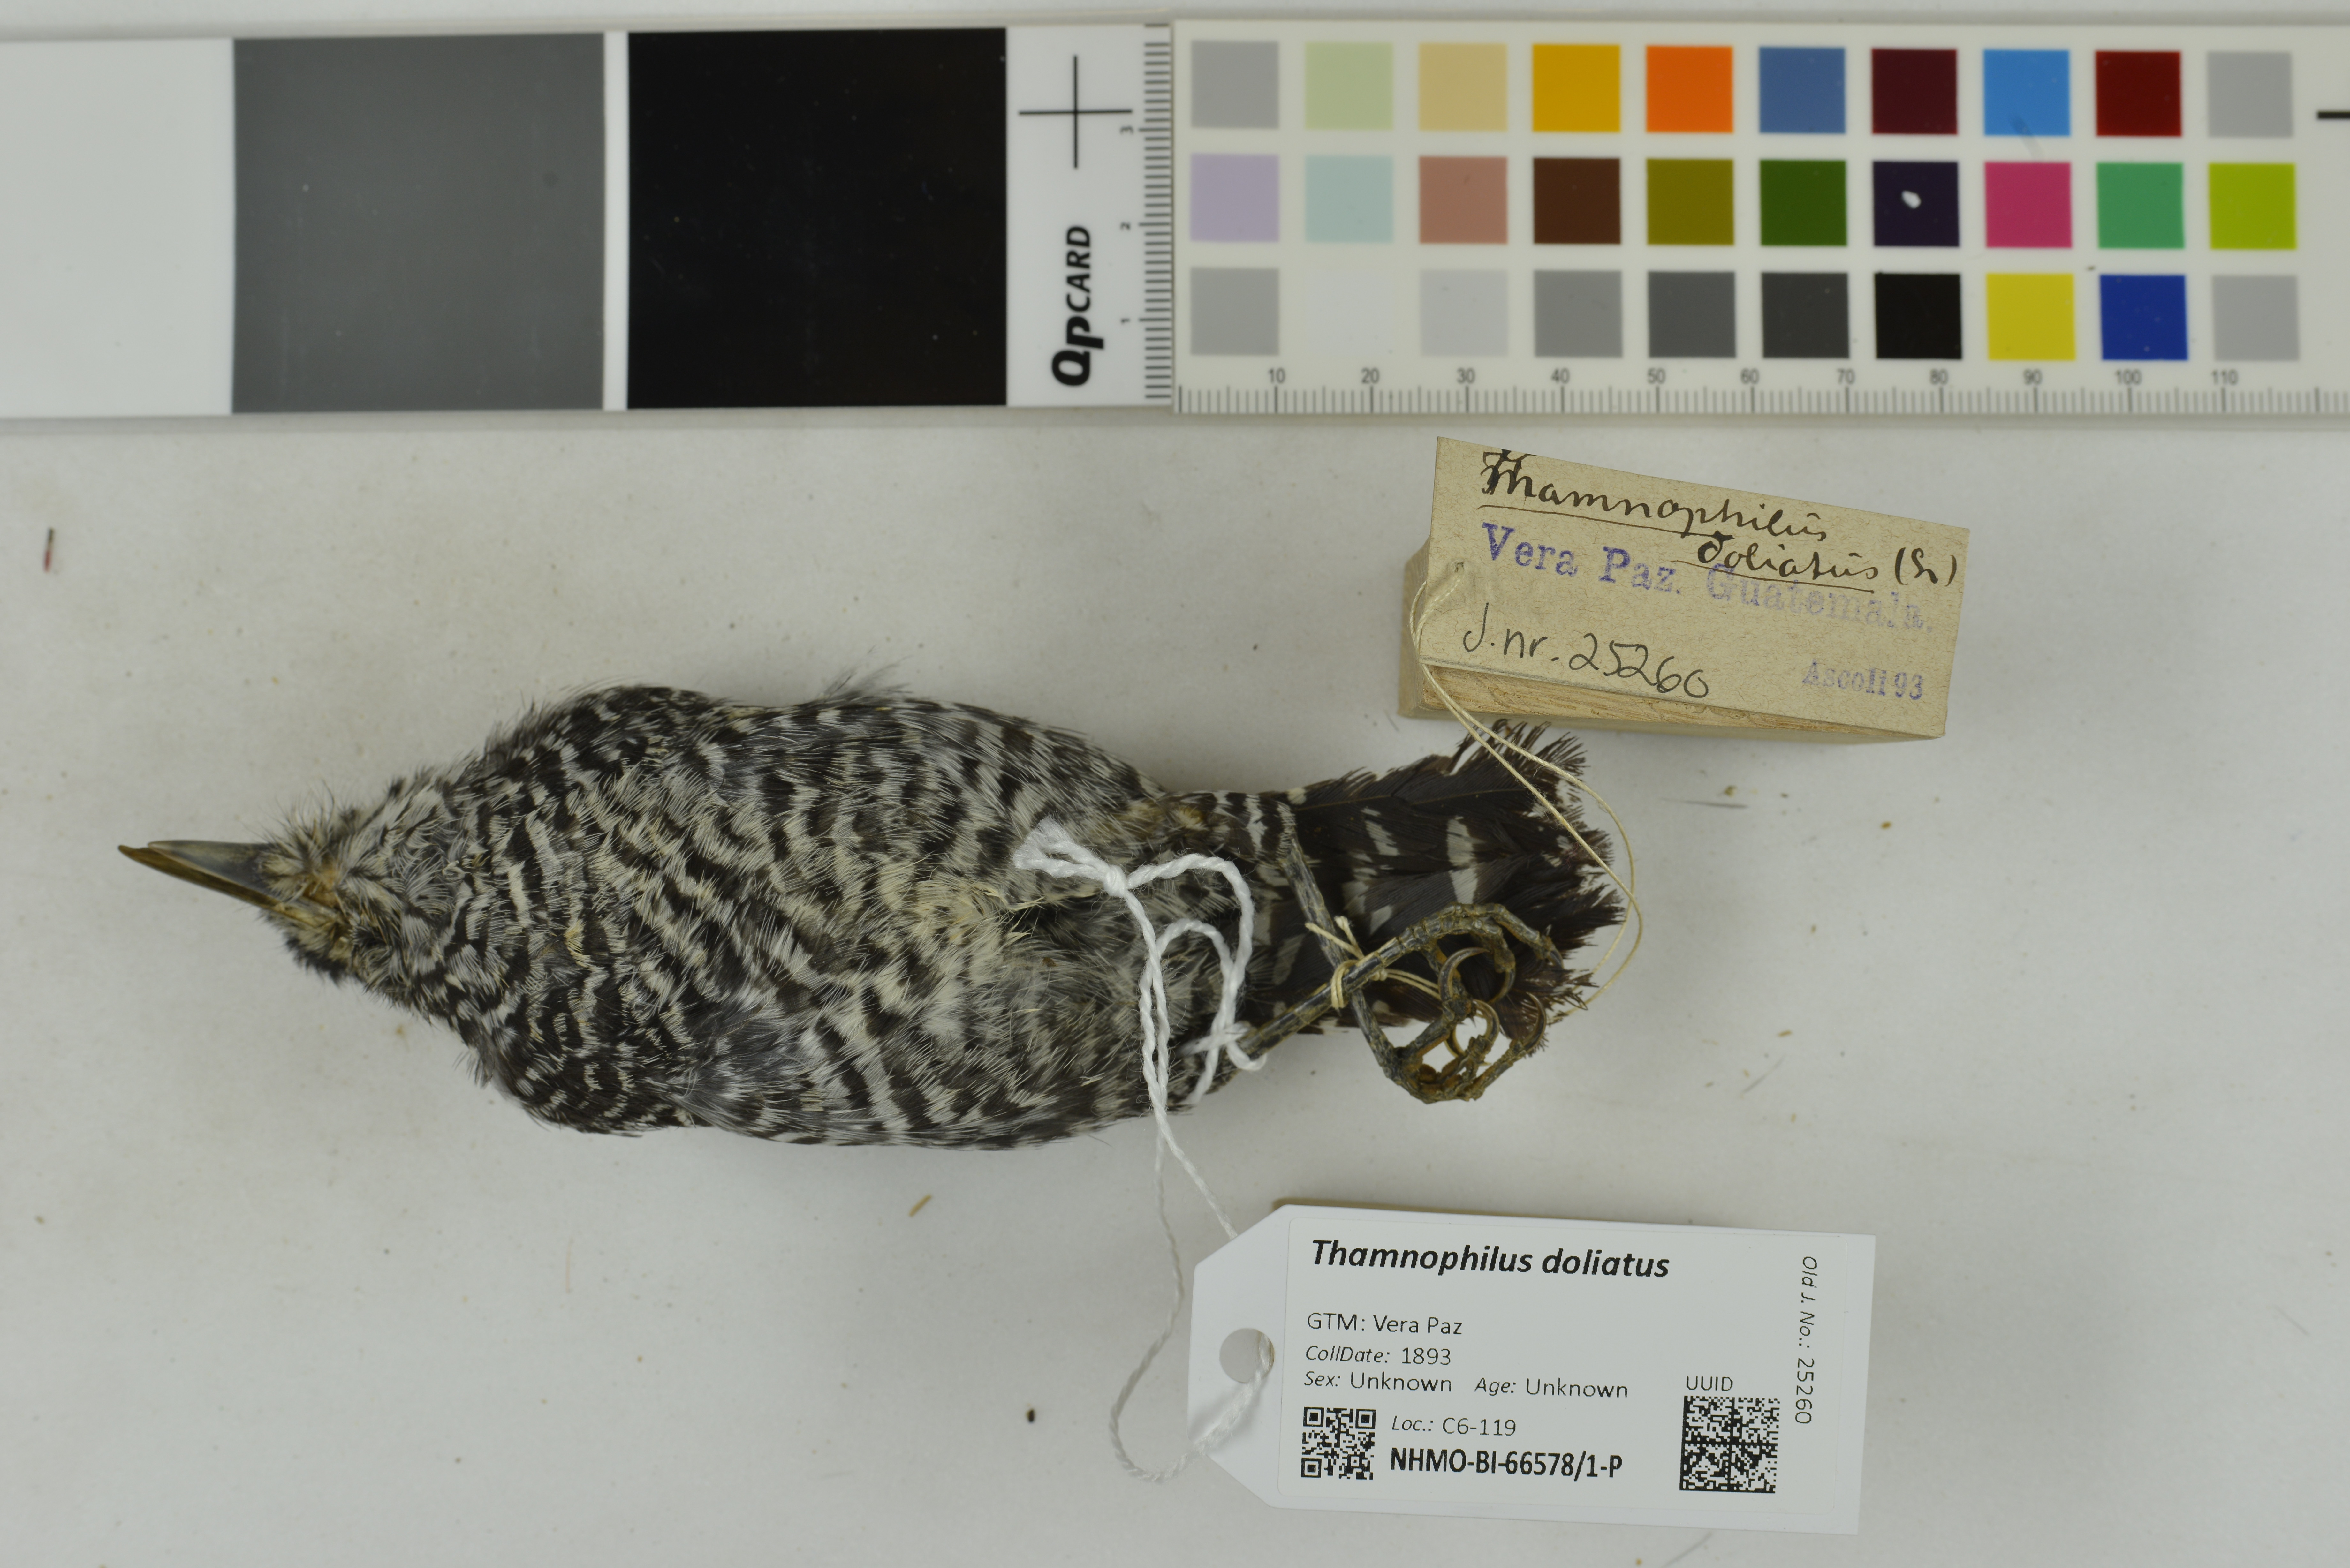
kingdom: Animalia
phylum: Chordata
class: Aves
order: Passeriformes
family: Thamnophilidae
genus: Thamnophilus
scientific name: Thamnophilus doliatus
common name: Barred antshrike
